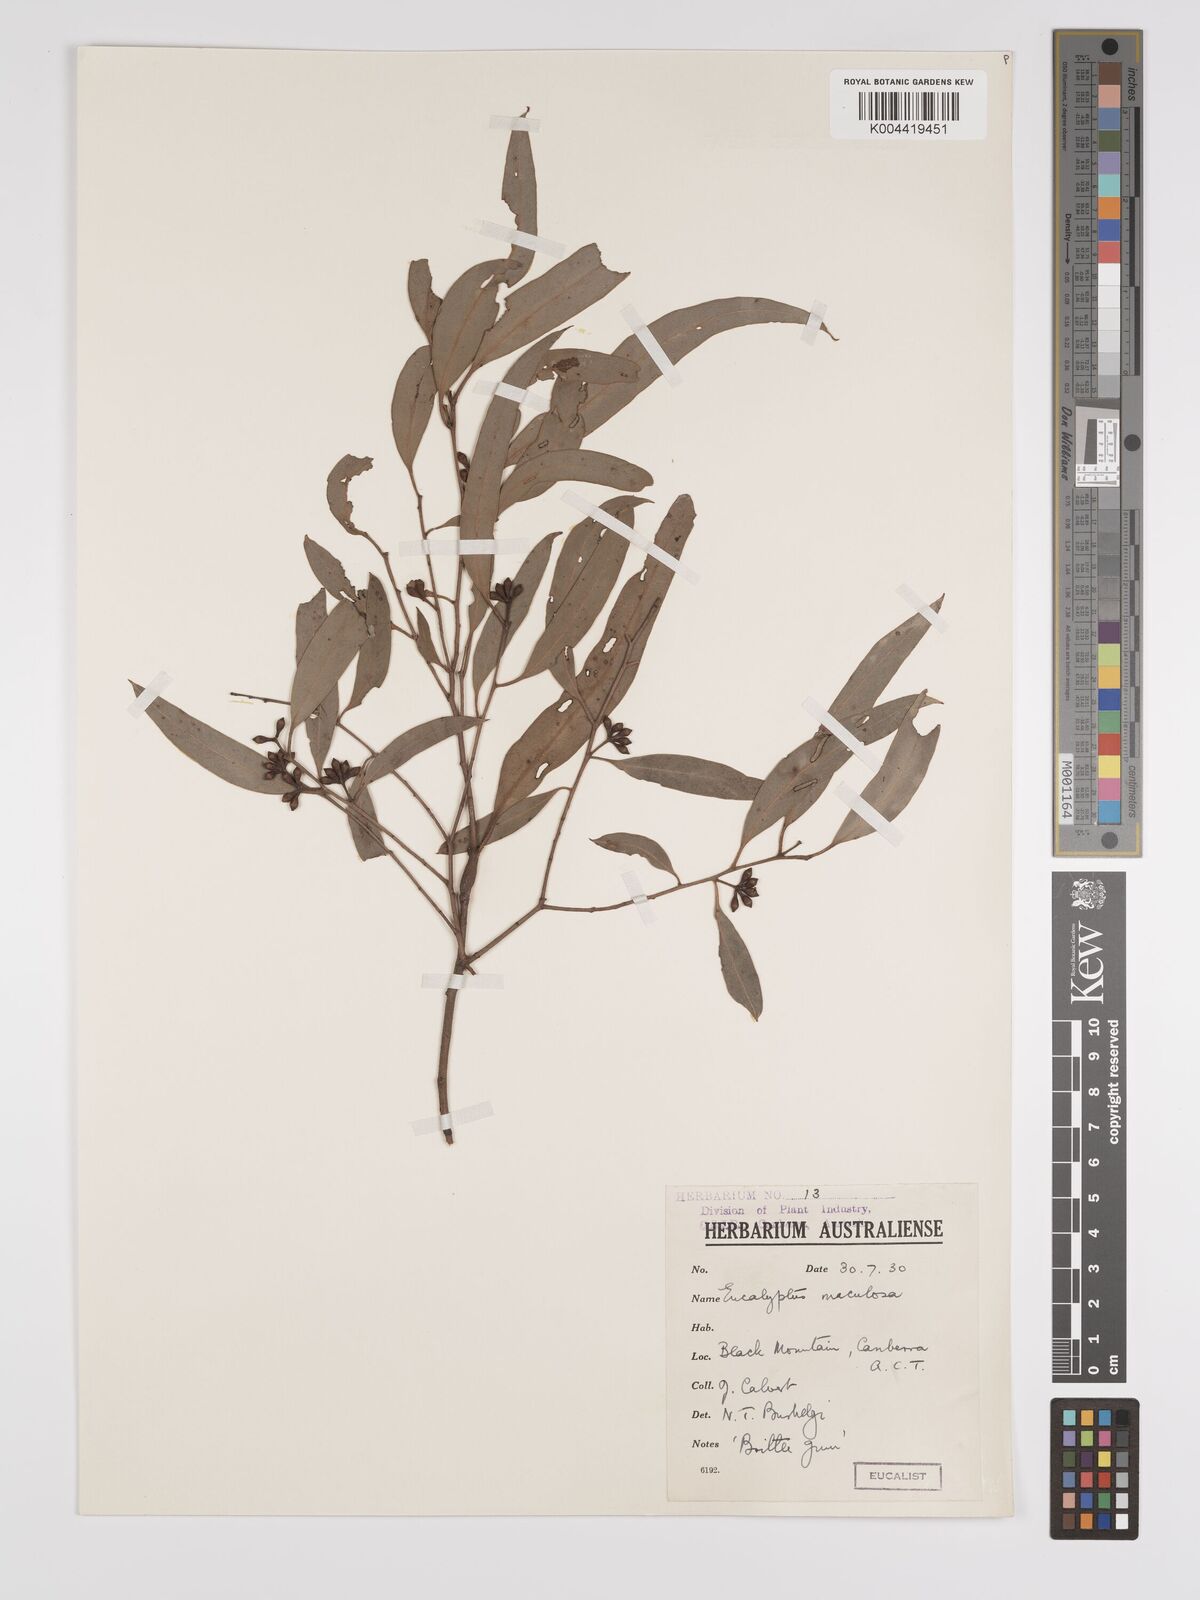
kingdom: Plantae
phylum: Tracheophyta
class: Magnoliopsida
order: Myrtales
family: Myrtaceae
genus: Eucalyptus
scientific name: Eucalyptus mannifera
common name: Manna gum
